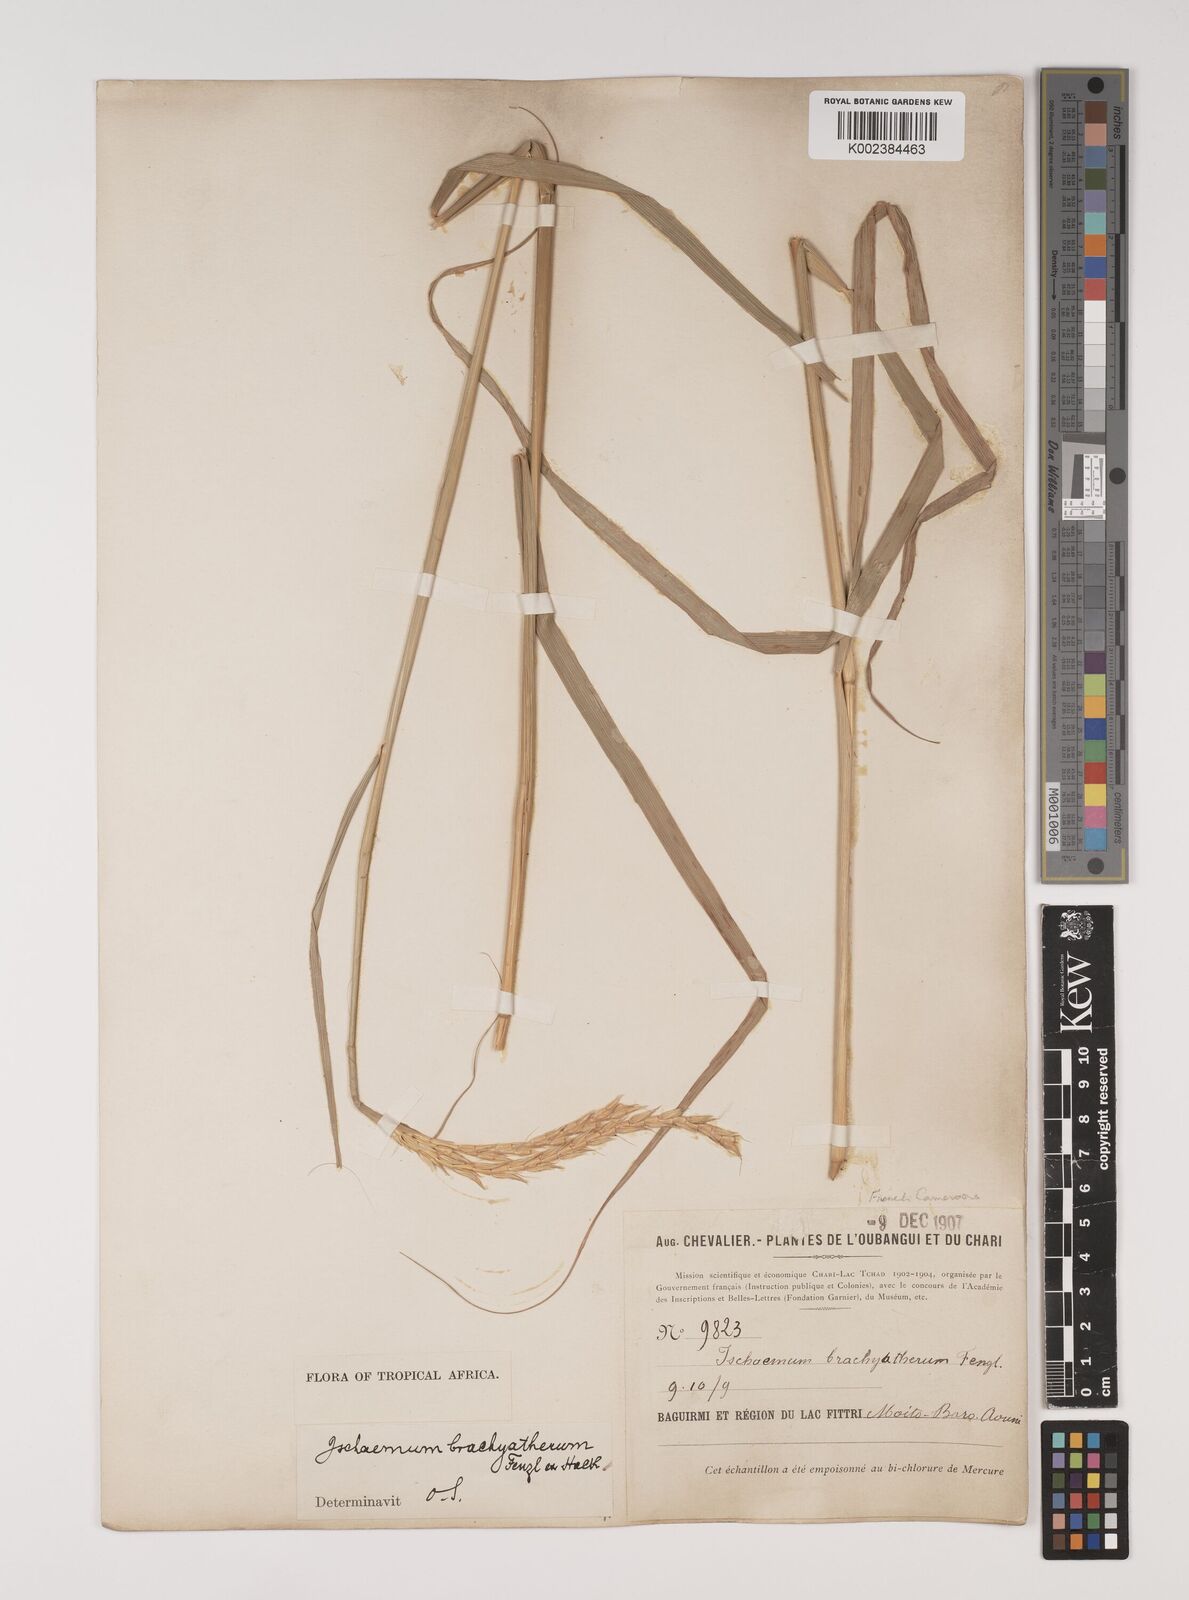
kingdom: Plantae
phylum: Tracheophyta
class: Liliopsida
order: Poales
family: Poaceae
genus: Ischaemum
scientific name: Ischaemum afrum
